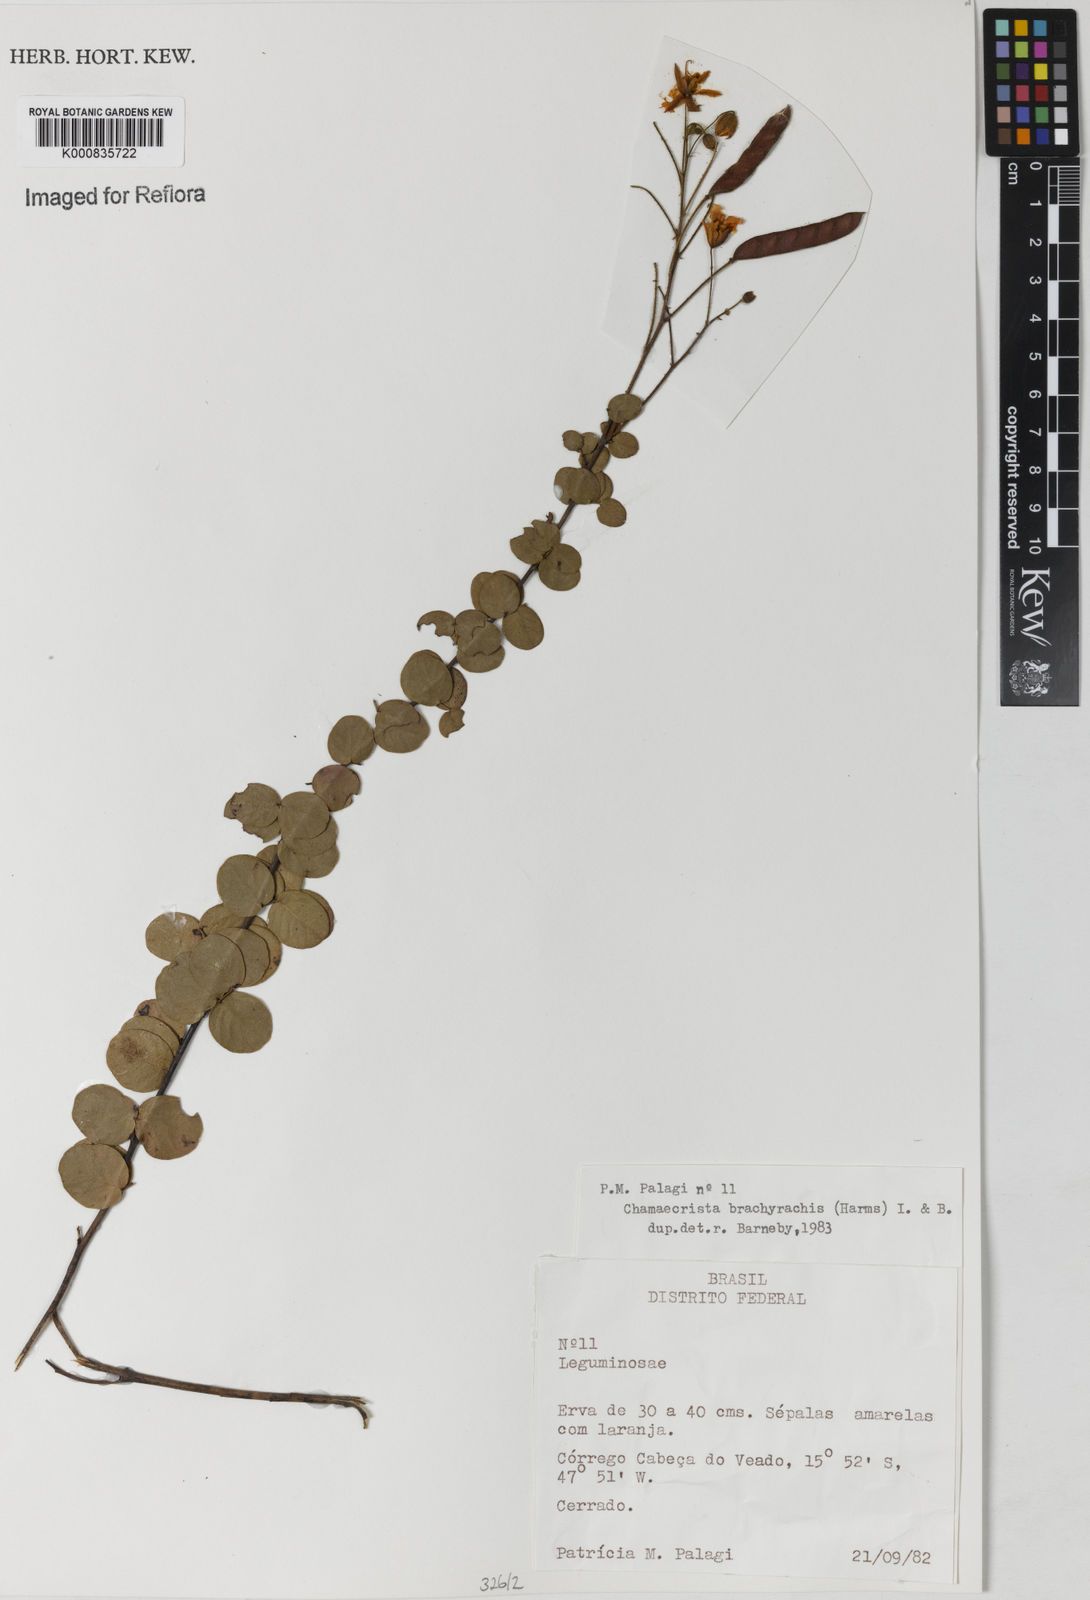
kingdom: Plantae
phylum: Tracheophyta
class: Magnoliopsida
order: Fabales
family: Fabaceae
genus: Chamaecrista
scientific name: Chamaecrista brachyrachis
